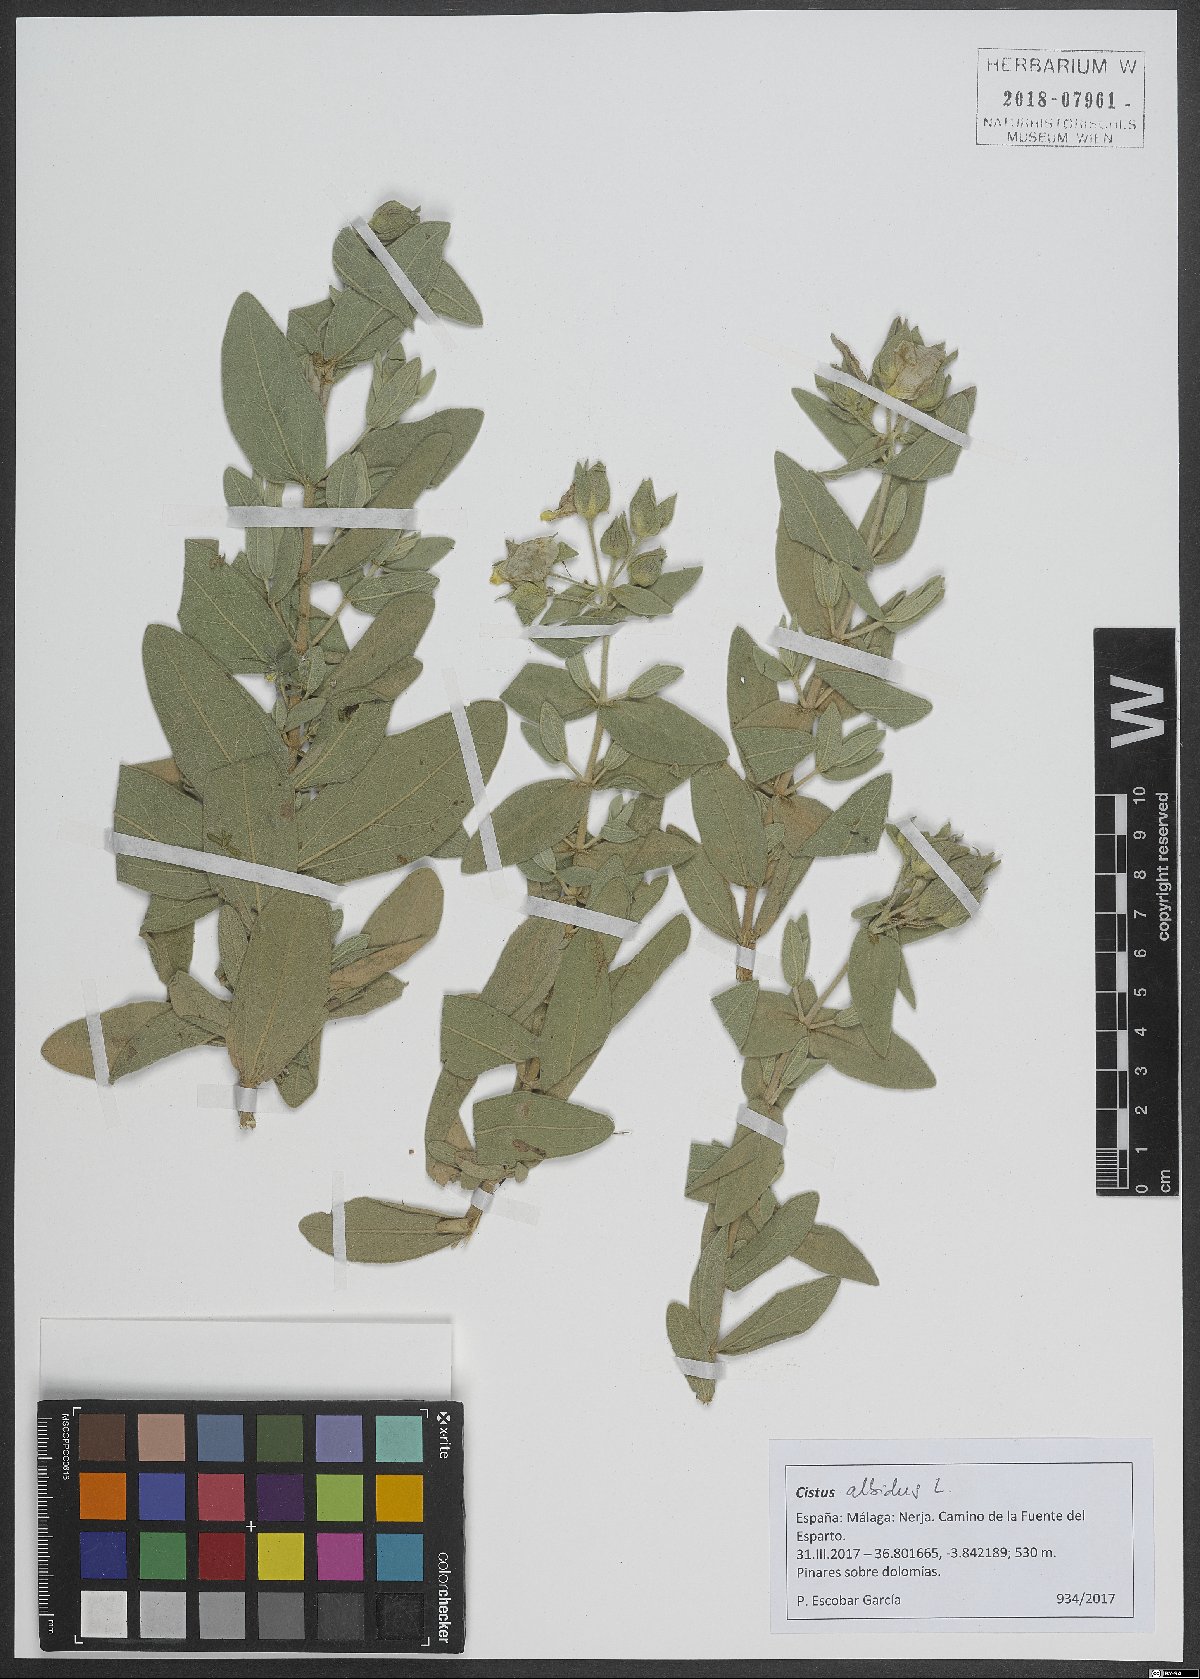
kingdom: Plantae
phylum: Tracheophyta
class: Magnoliopsida
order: Malvales
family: Cistaceae
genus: Cistus
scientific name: Cistus albidus
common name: White-leaf rock-rose
